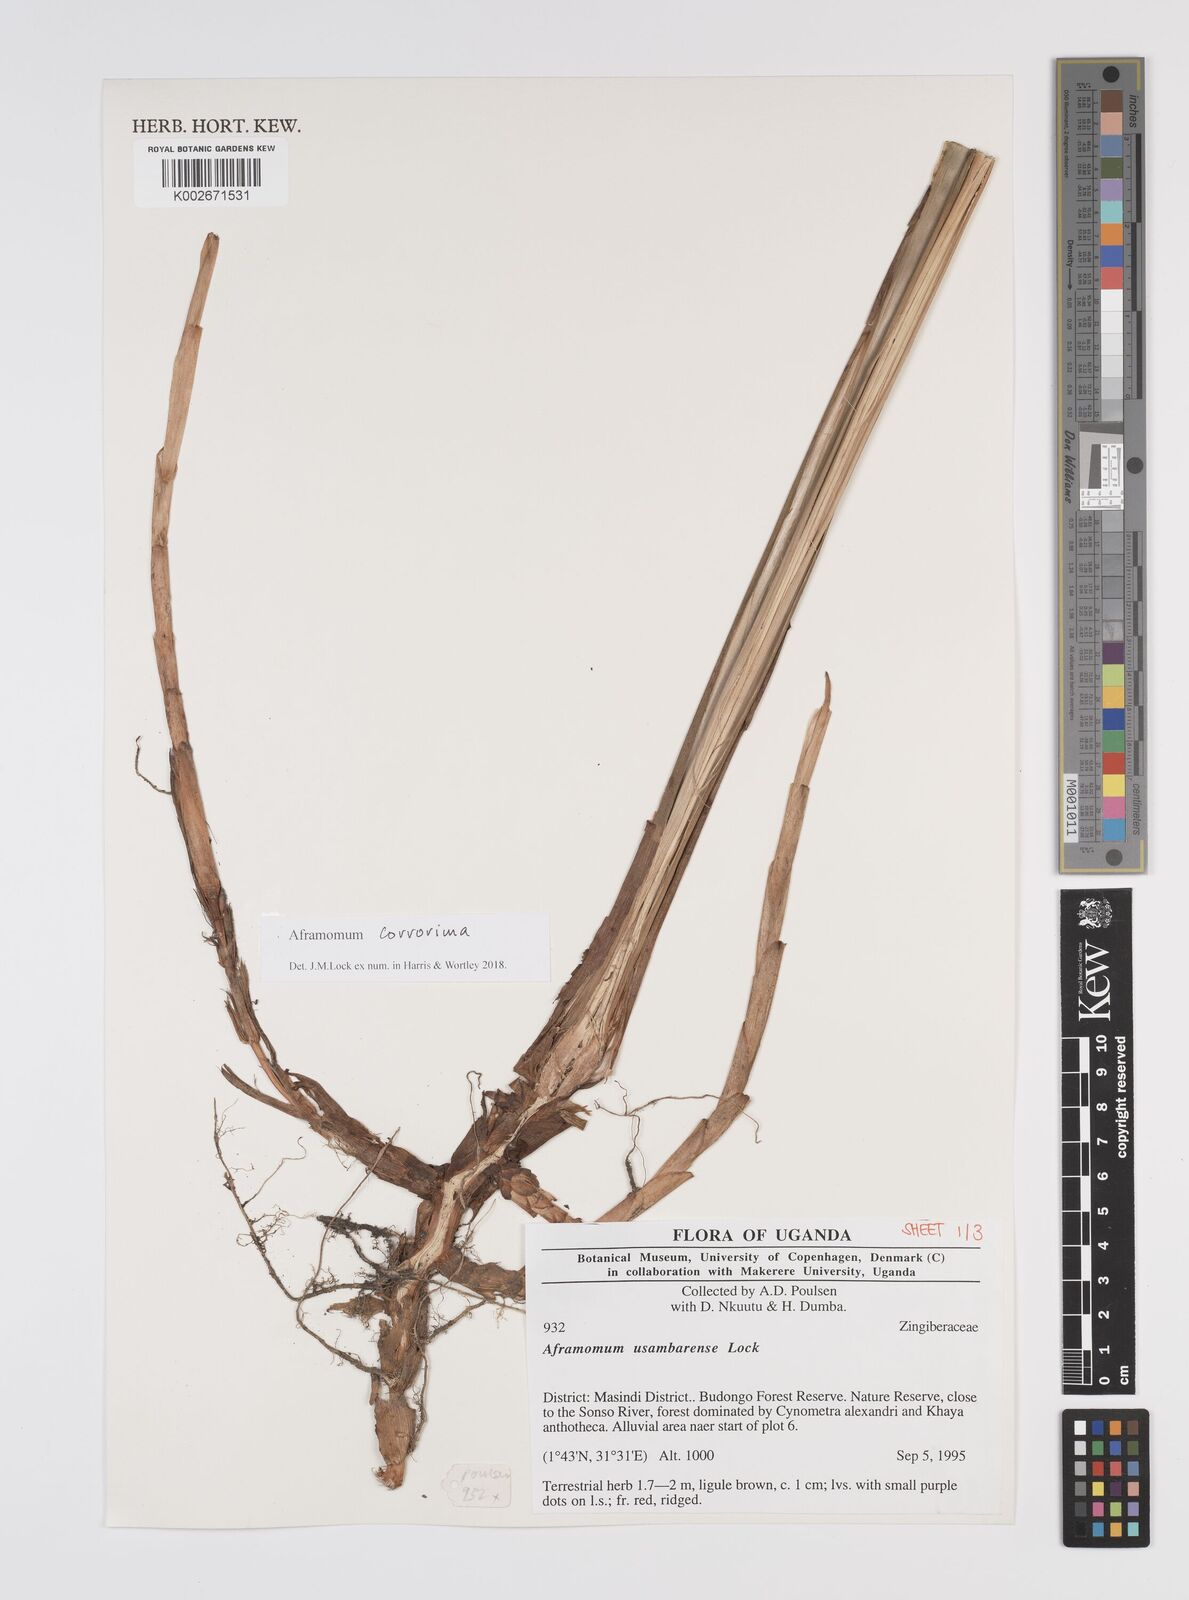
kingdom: Plantae
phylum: Tracheophyta
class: Liliopsida
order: Zingiberales
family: Zingiberaceae
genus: Aframomum
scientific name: Aframomum corrorima
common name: Ethiopian cardamom
